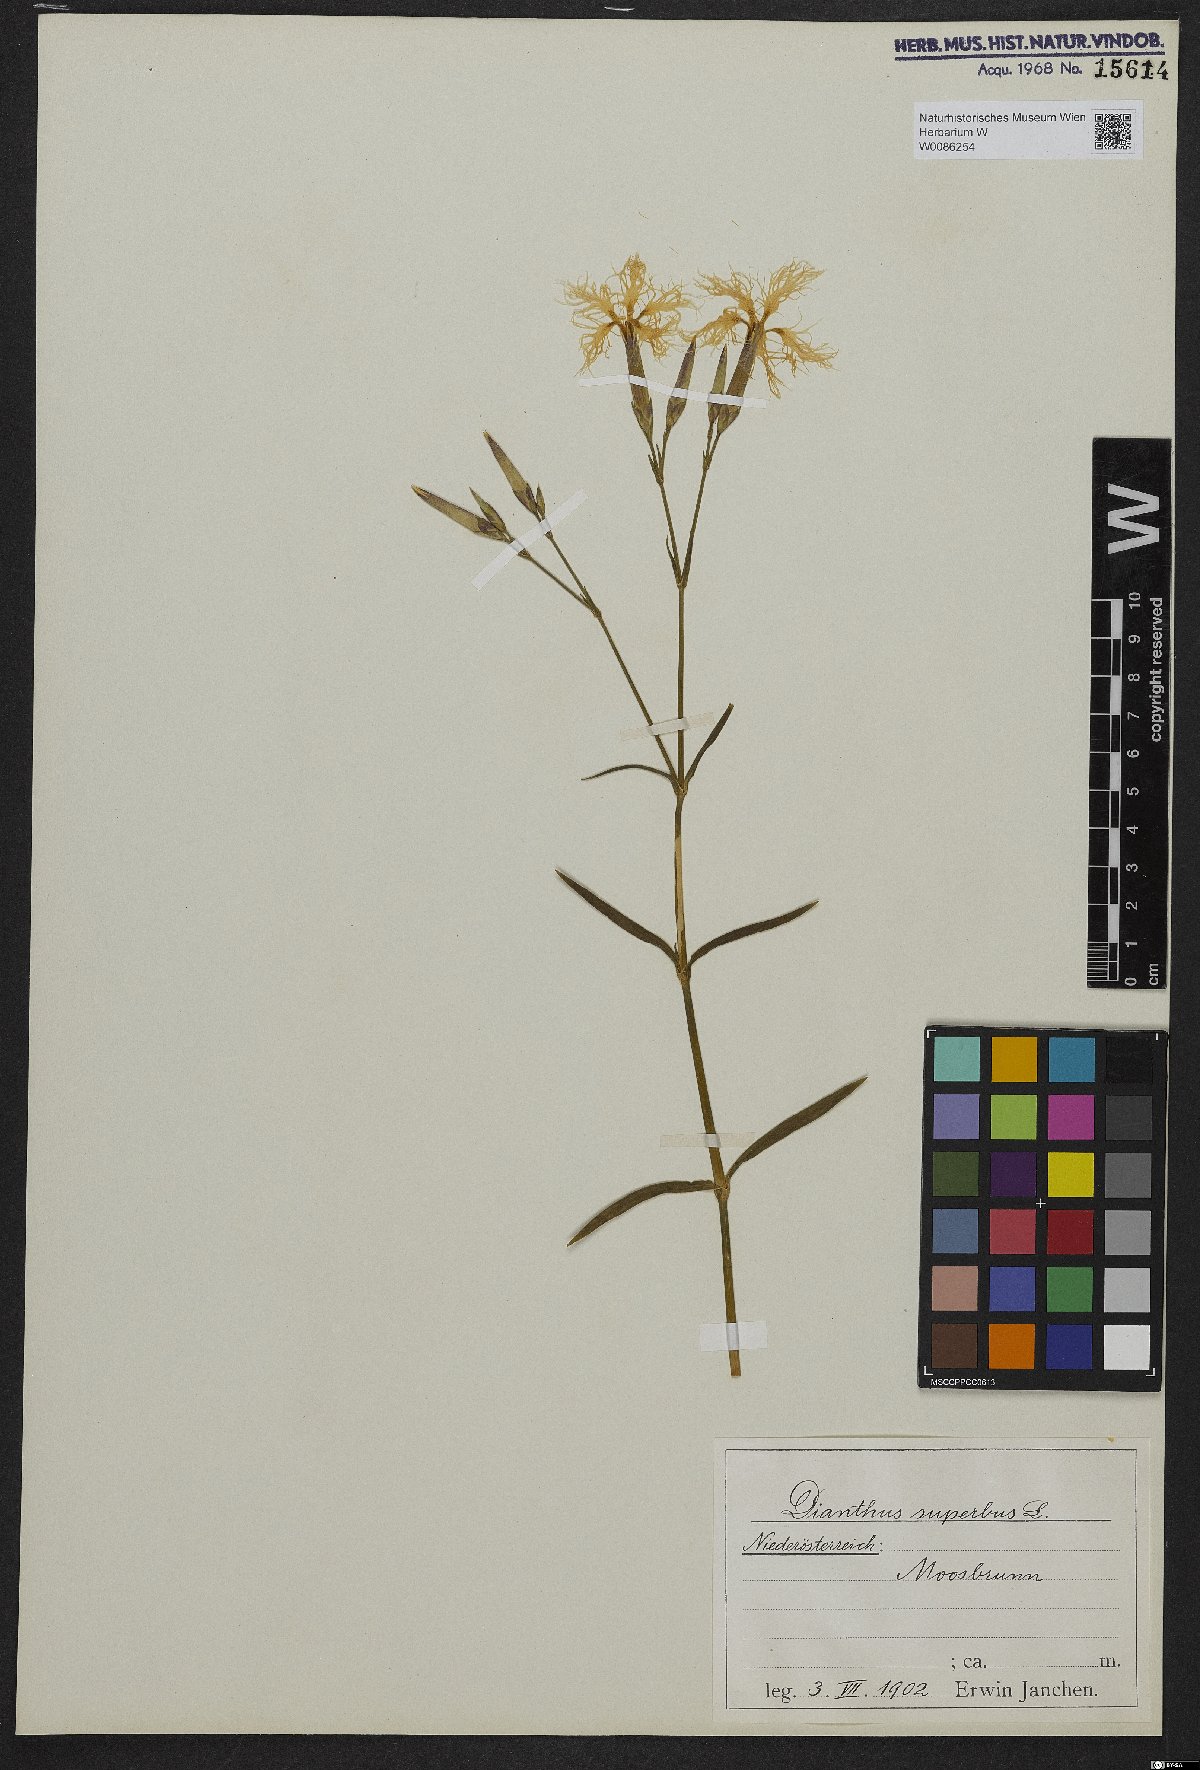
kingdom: Plantae
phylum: Tracheophyta
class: Magnoliopsida
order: Caryophyllales
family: Caryophyllaceae
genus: Dianthus
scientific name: Dianthus superbus
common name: Fringed pink
